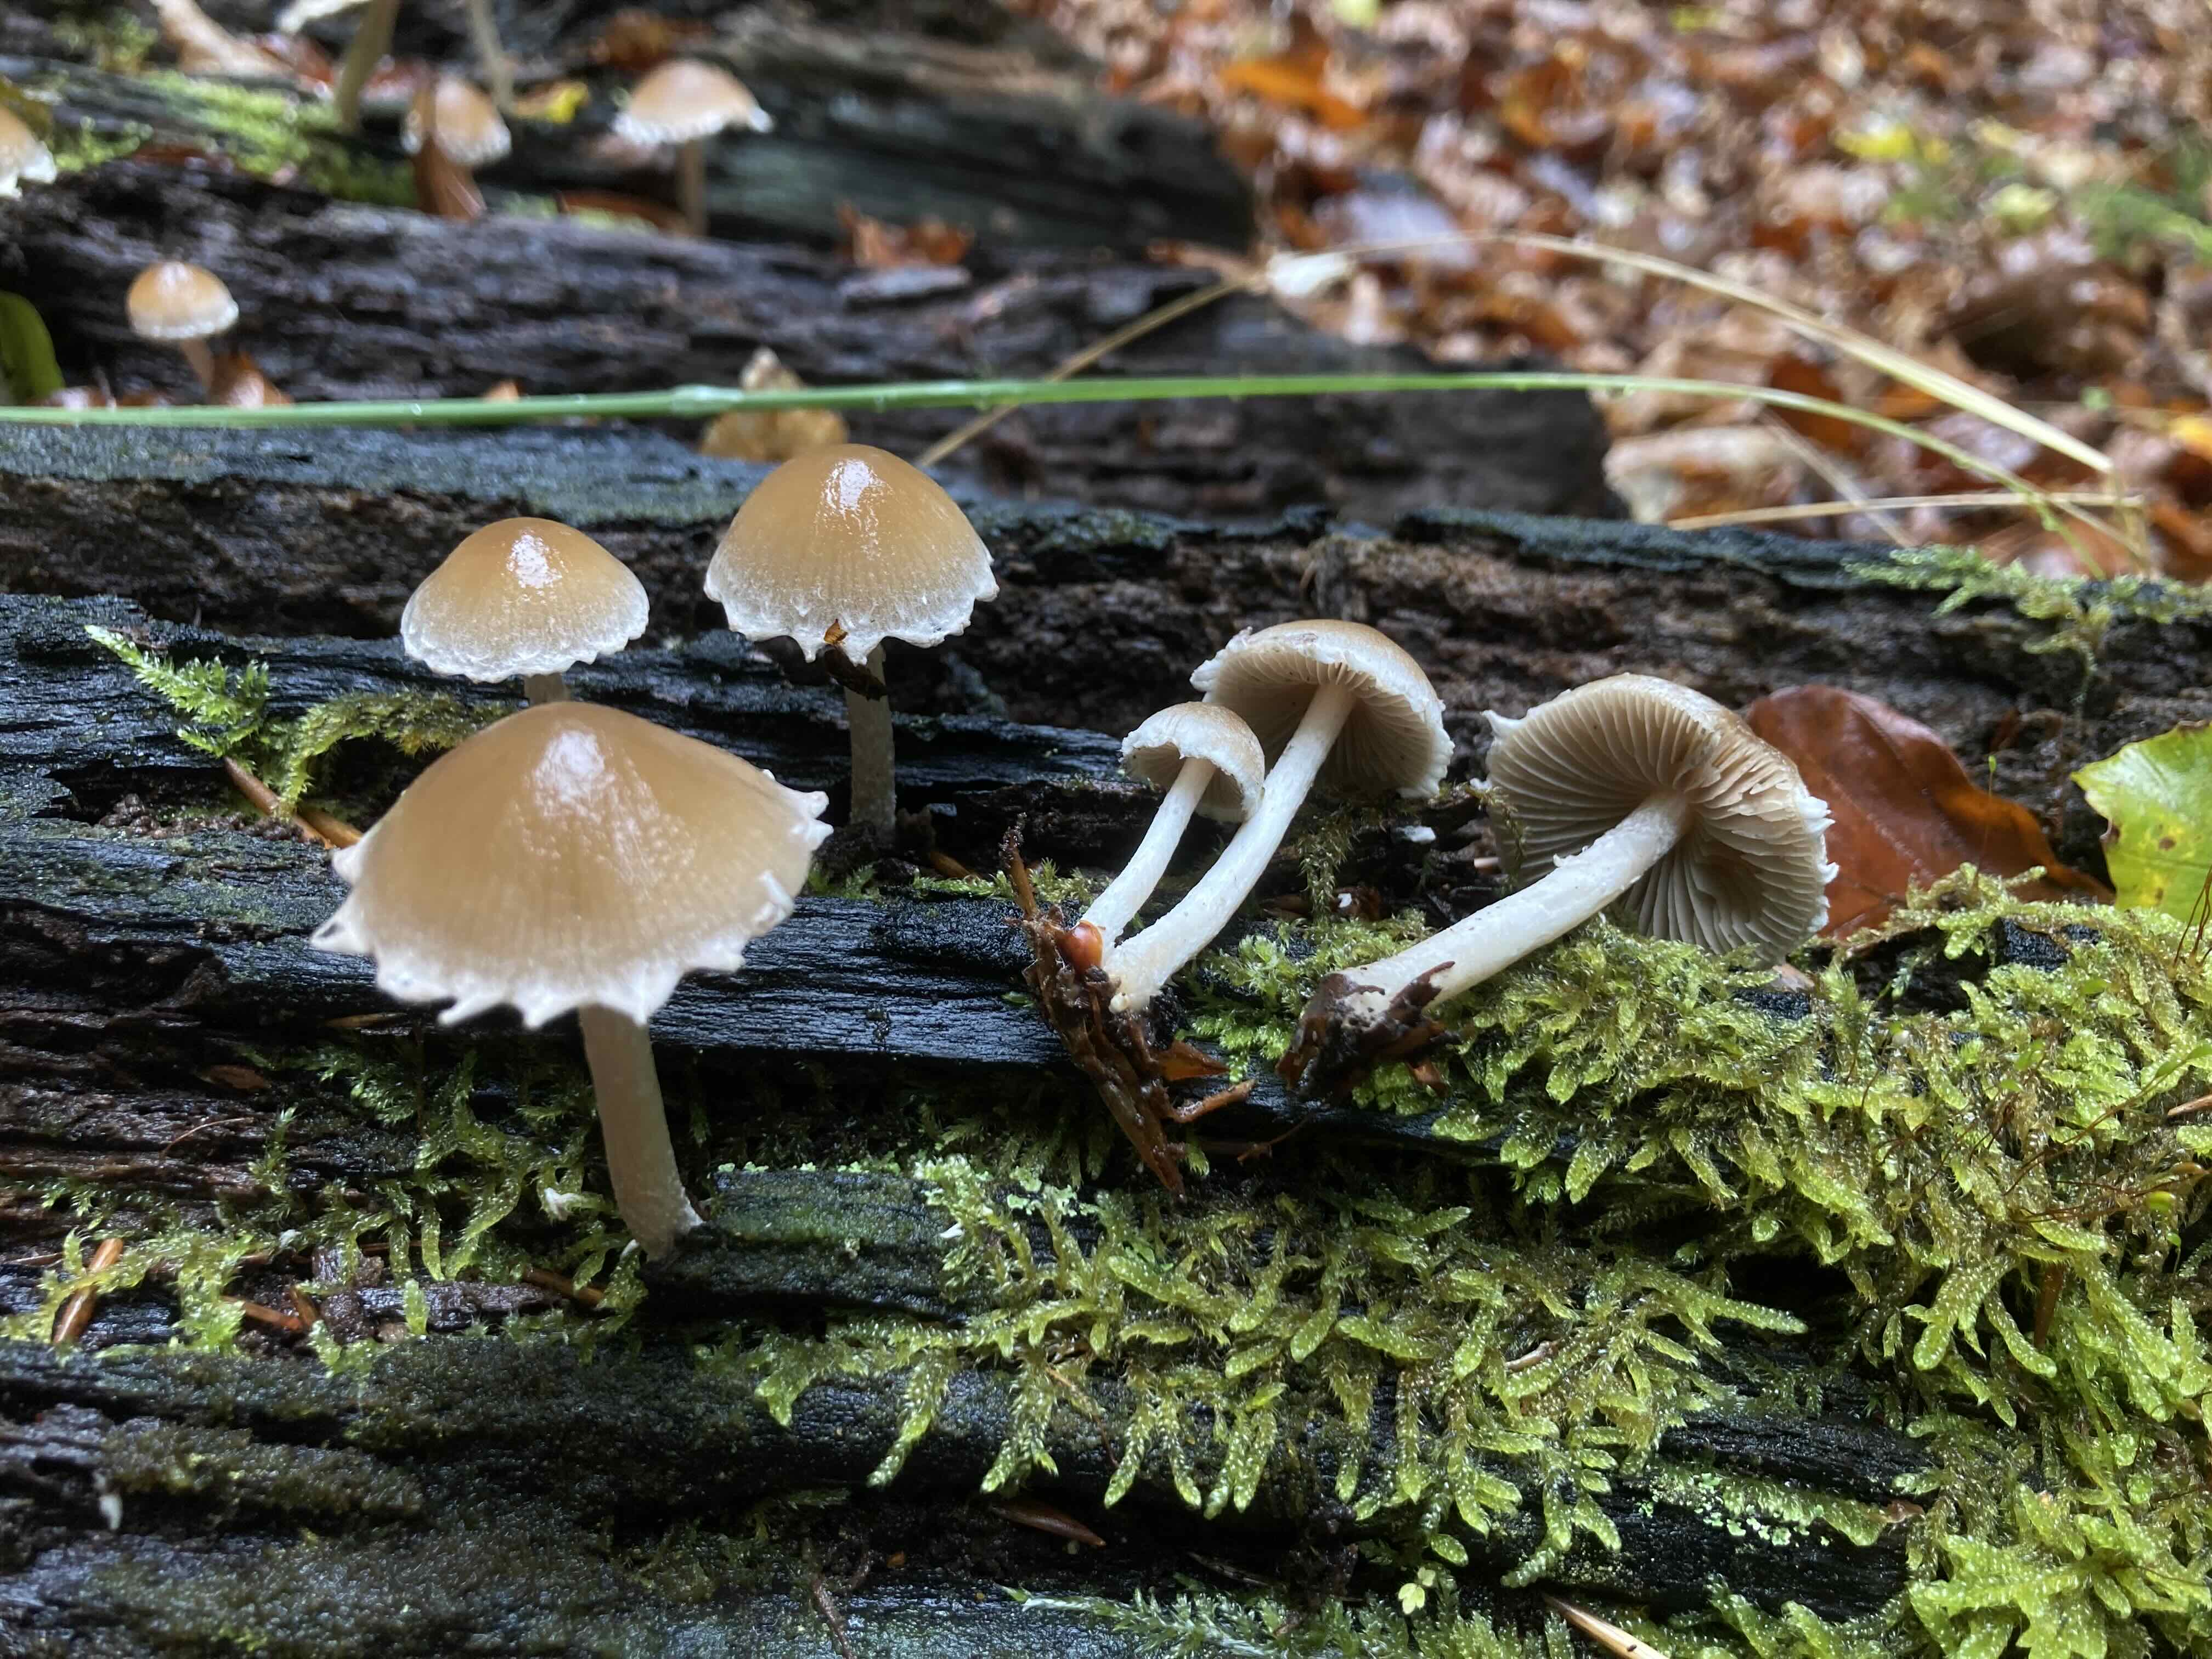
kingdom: Fungi
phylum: Basidiomycota
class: Agaricomycetes
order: Agaricales
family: Psathyrellaceae
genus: Psathyrella
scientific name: Psathyrella spintrigeroides
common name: tandet mørkhat
